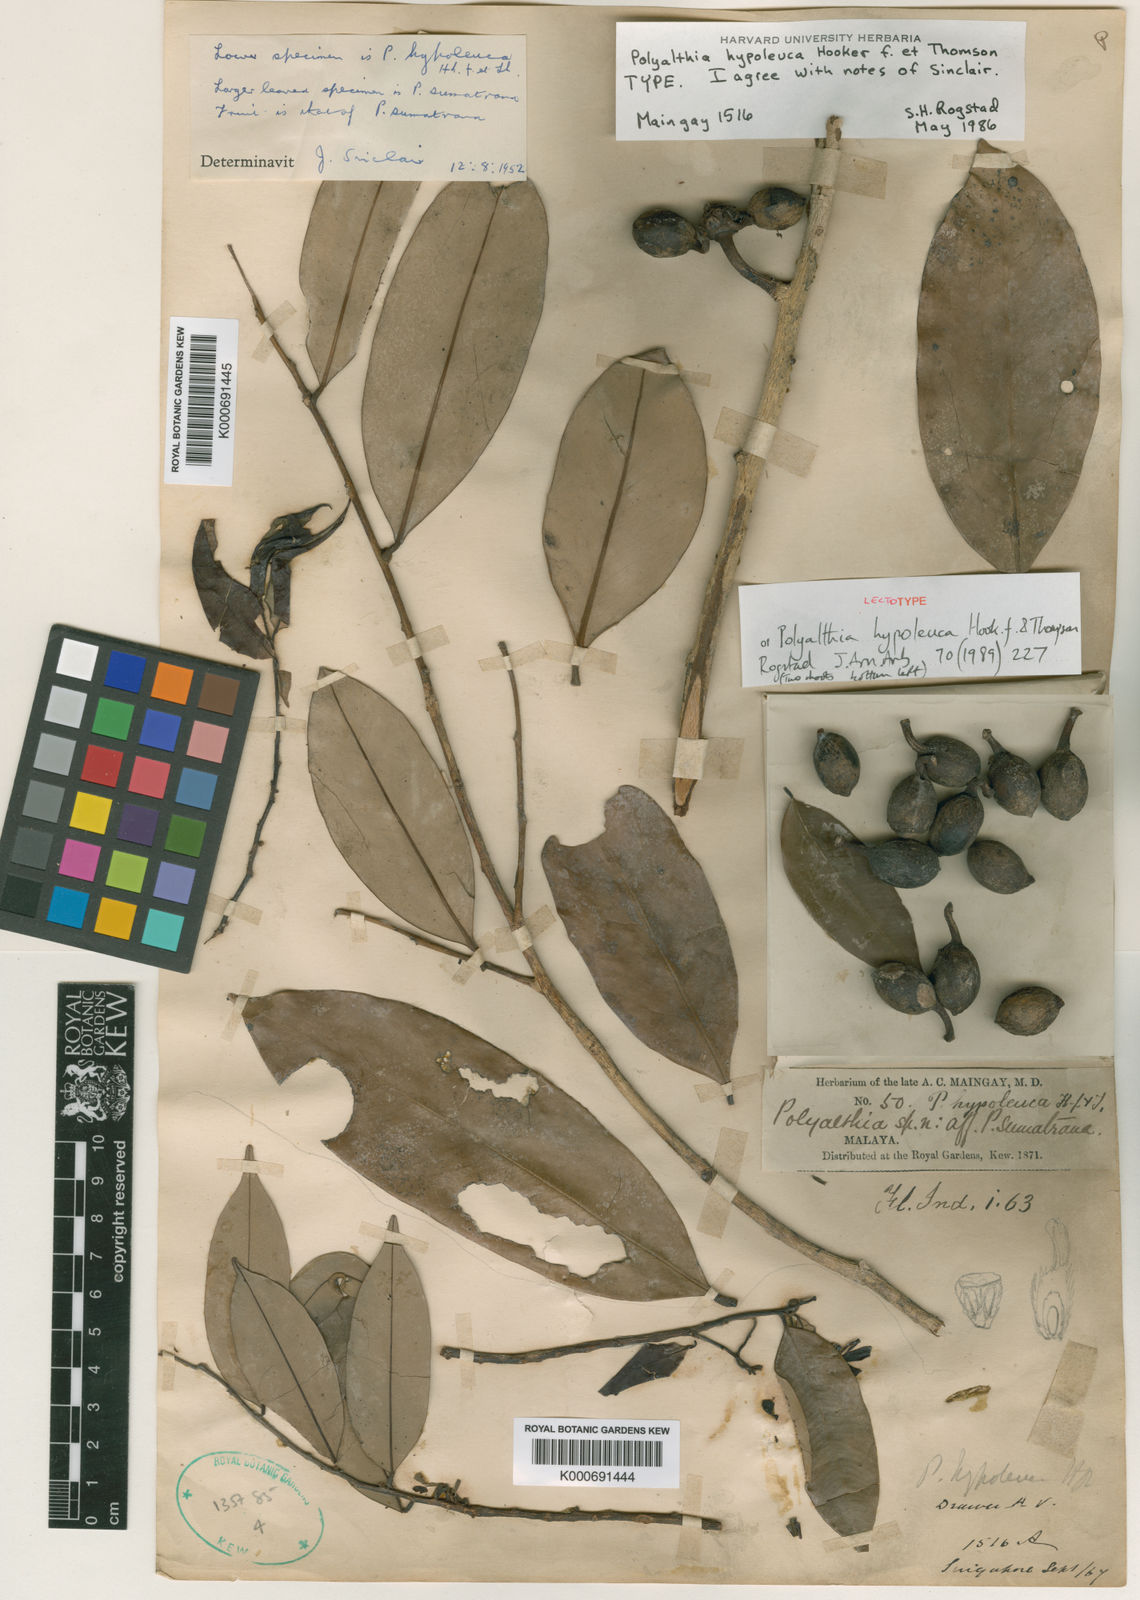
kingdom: Plantae
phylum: Tracheophyta
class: Magnoliopsida
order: Magnoliales
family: Annonaceae
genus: Maasia
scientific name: Maasia hypoleuca
